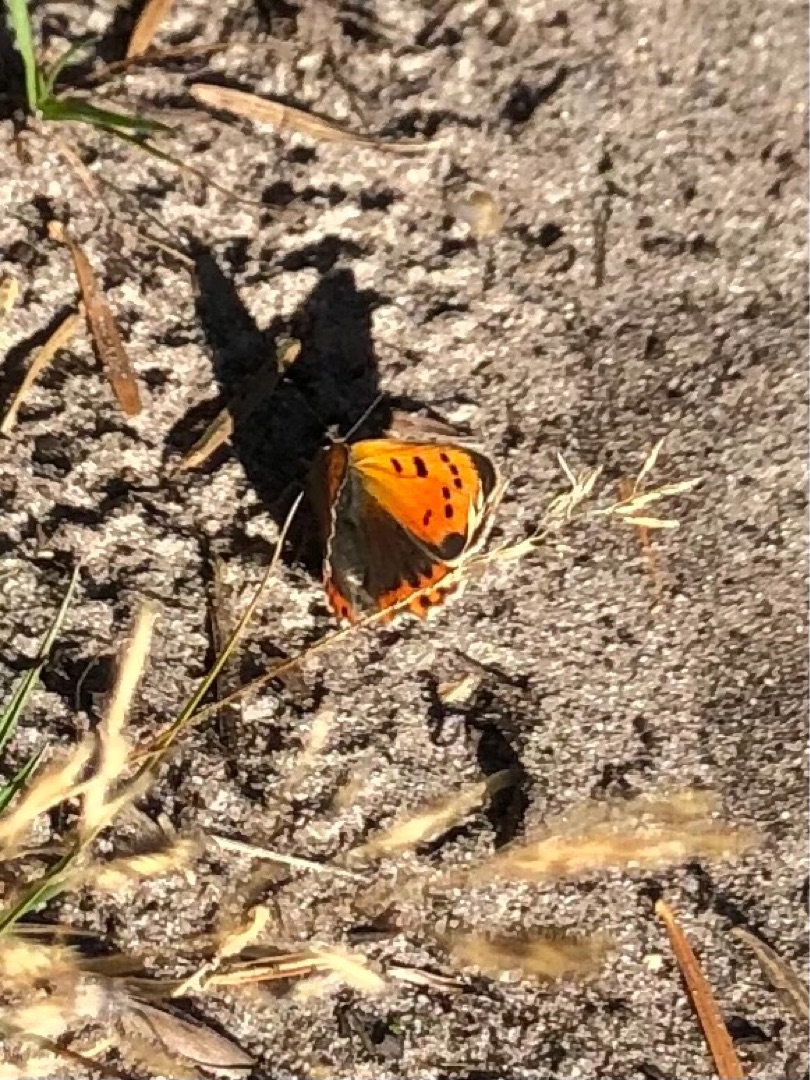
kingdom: Animalia
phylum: Arthropoda
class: Insecta
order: Lepidoptera
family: Lycaenidae
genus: Lycaena
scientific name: Lycaena phlaeas
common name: Lille ildfugl
